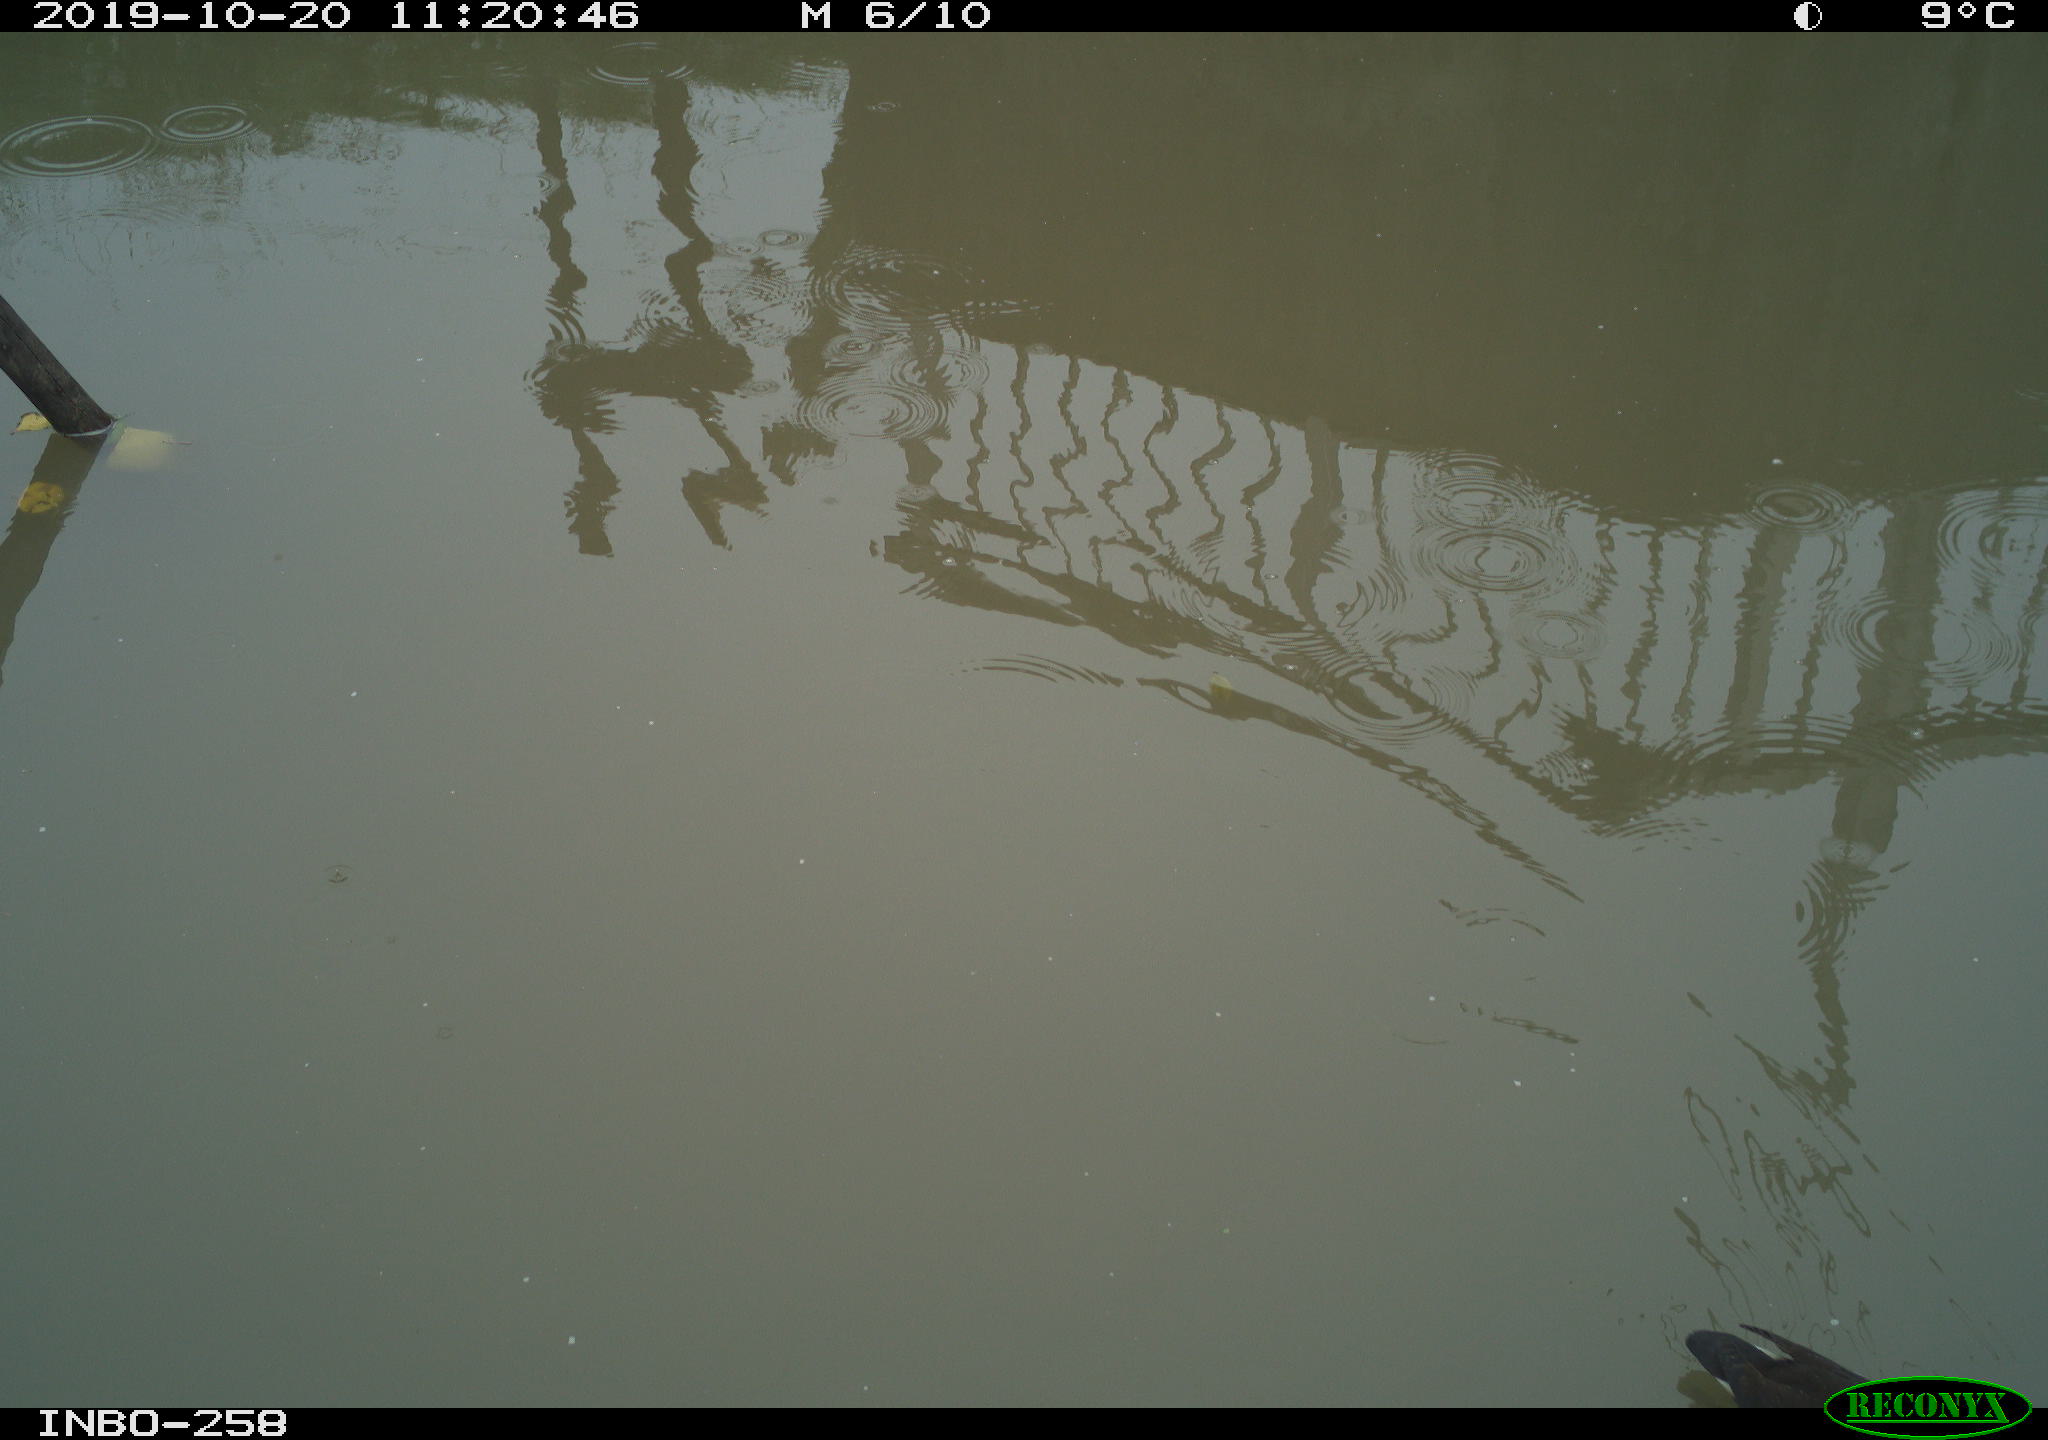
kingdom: Animalia
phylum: Chordata
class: Aves
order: Gruiformes
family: Rallidae
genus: Gallinula
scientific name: Gallinula chloropus
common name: Common moorhen
